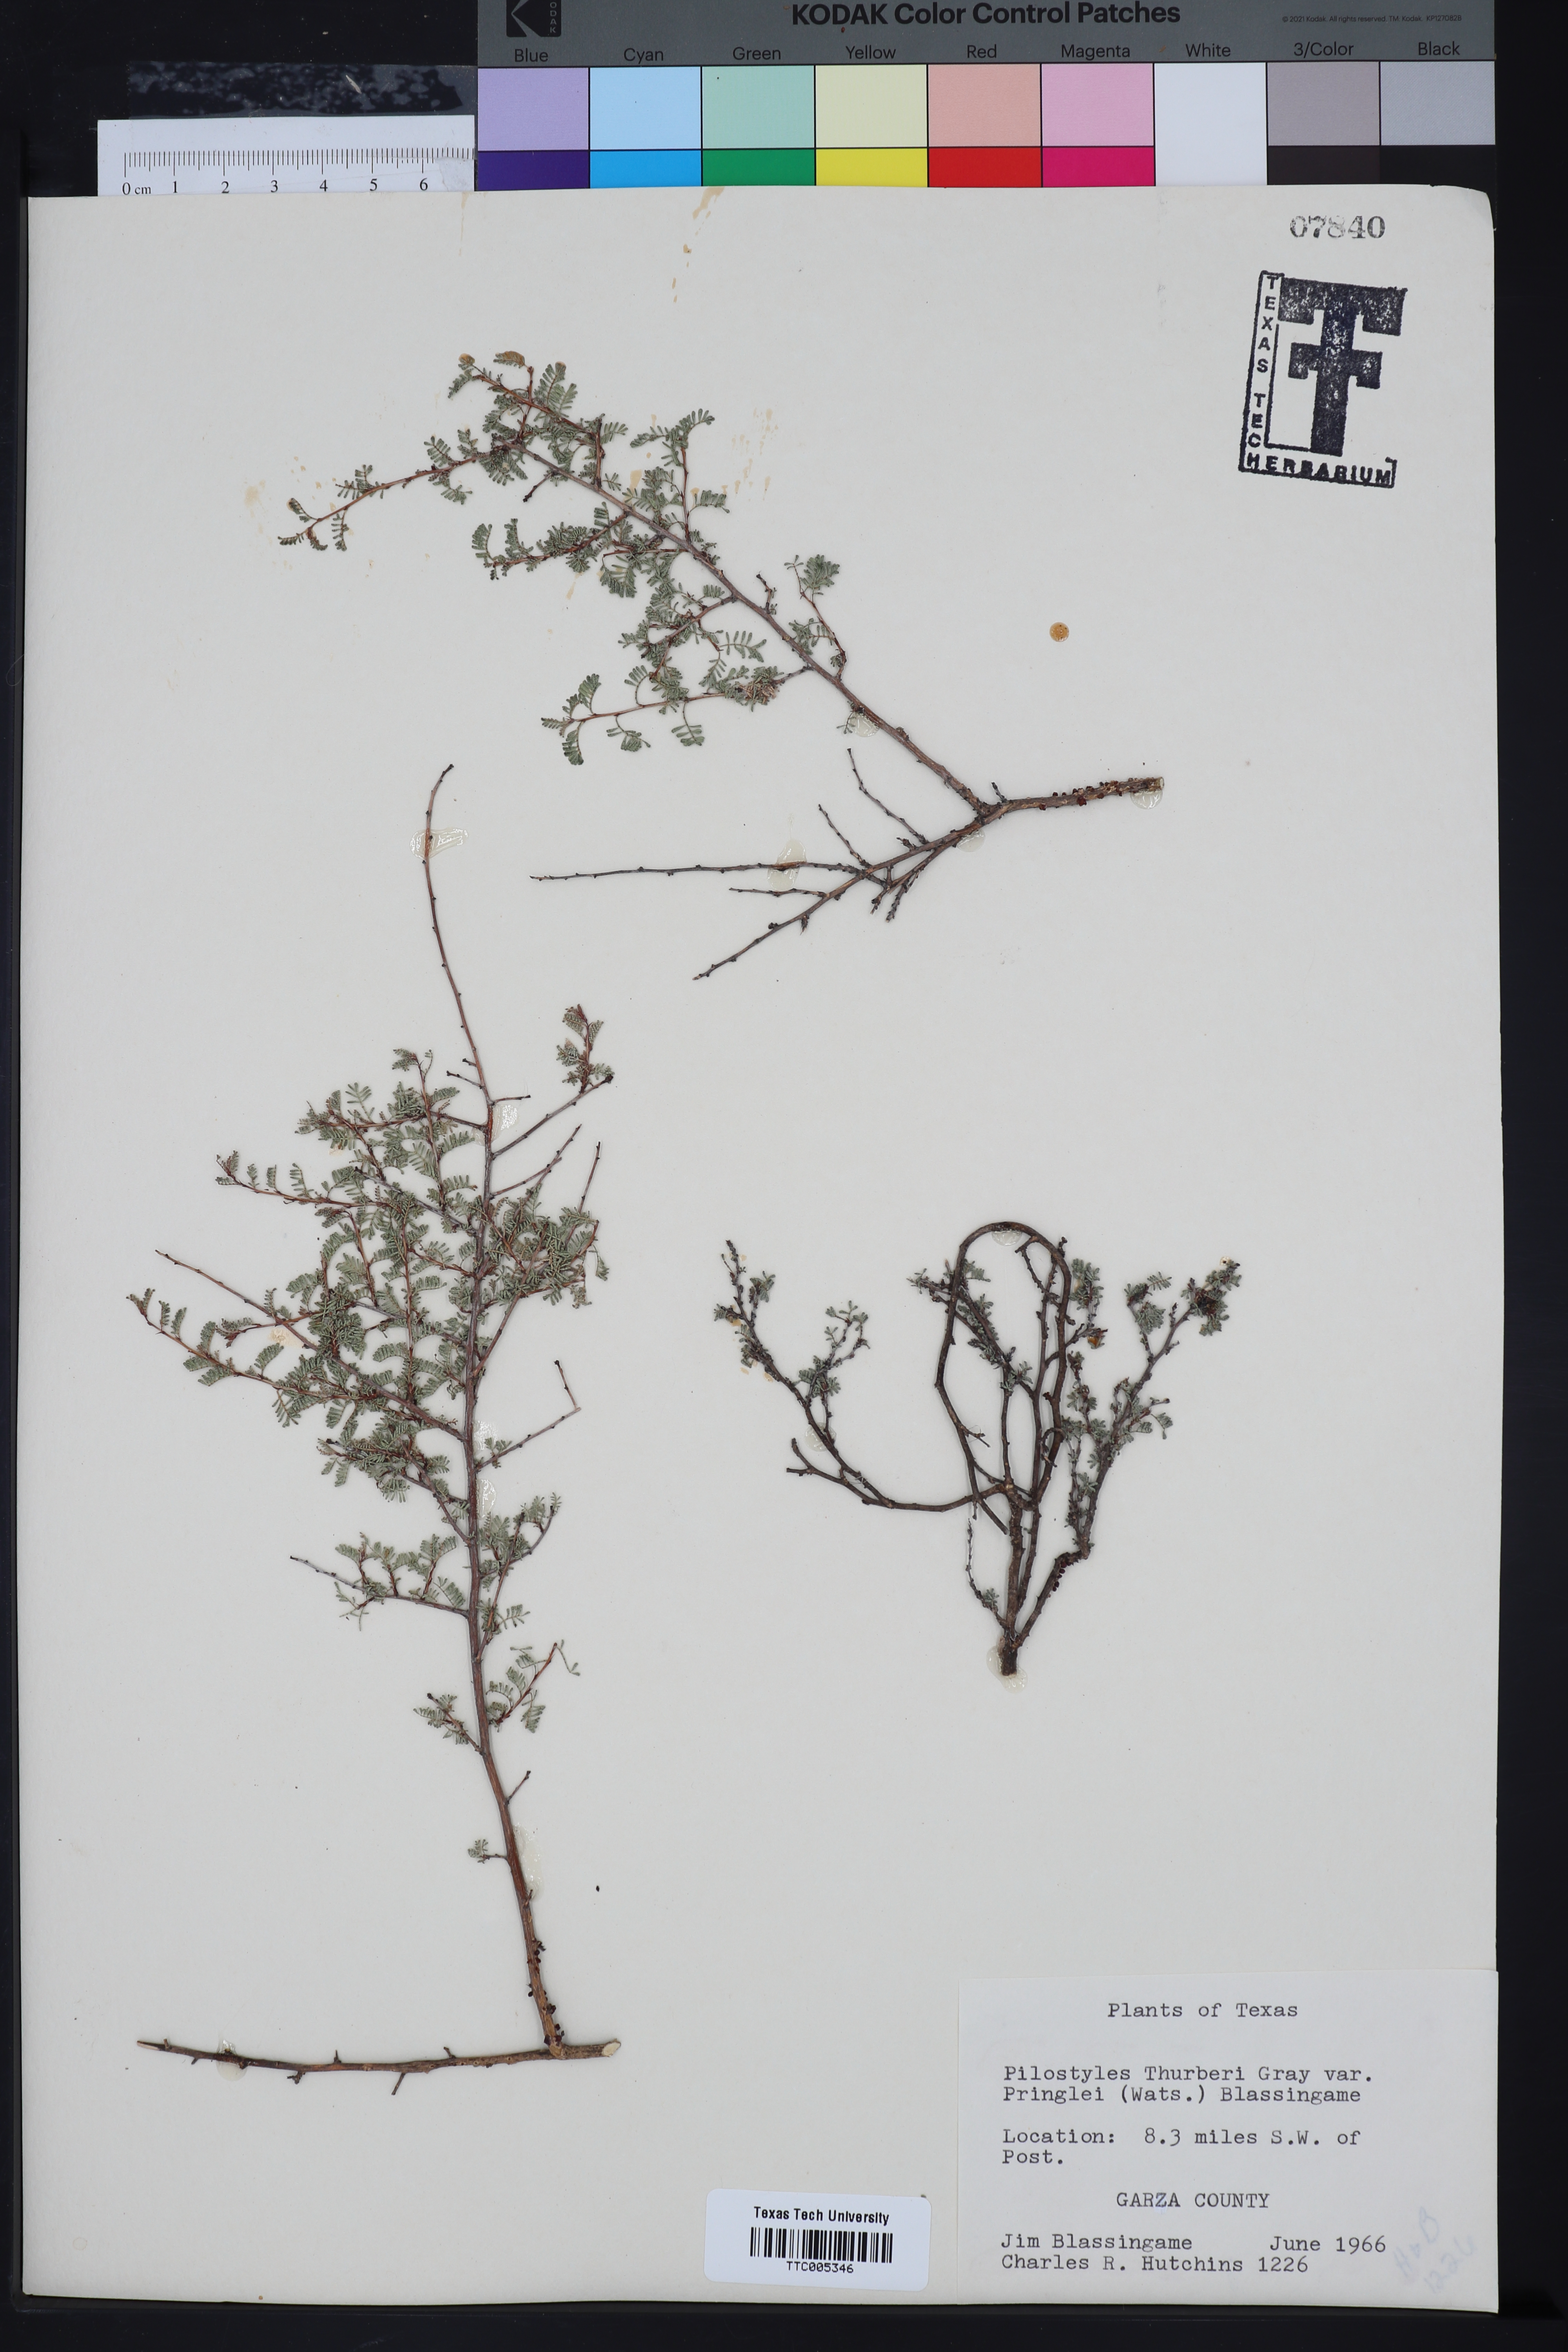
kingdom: Plantae
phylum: Tracheophyta
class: Magnoliopsida
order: Cucurbitales
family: Apodanthaceae
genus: Pilostyles
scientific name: Pilostyles thurberi
